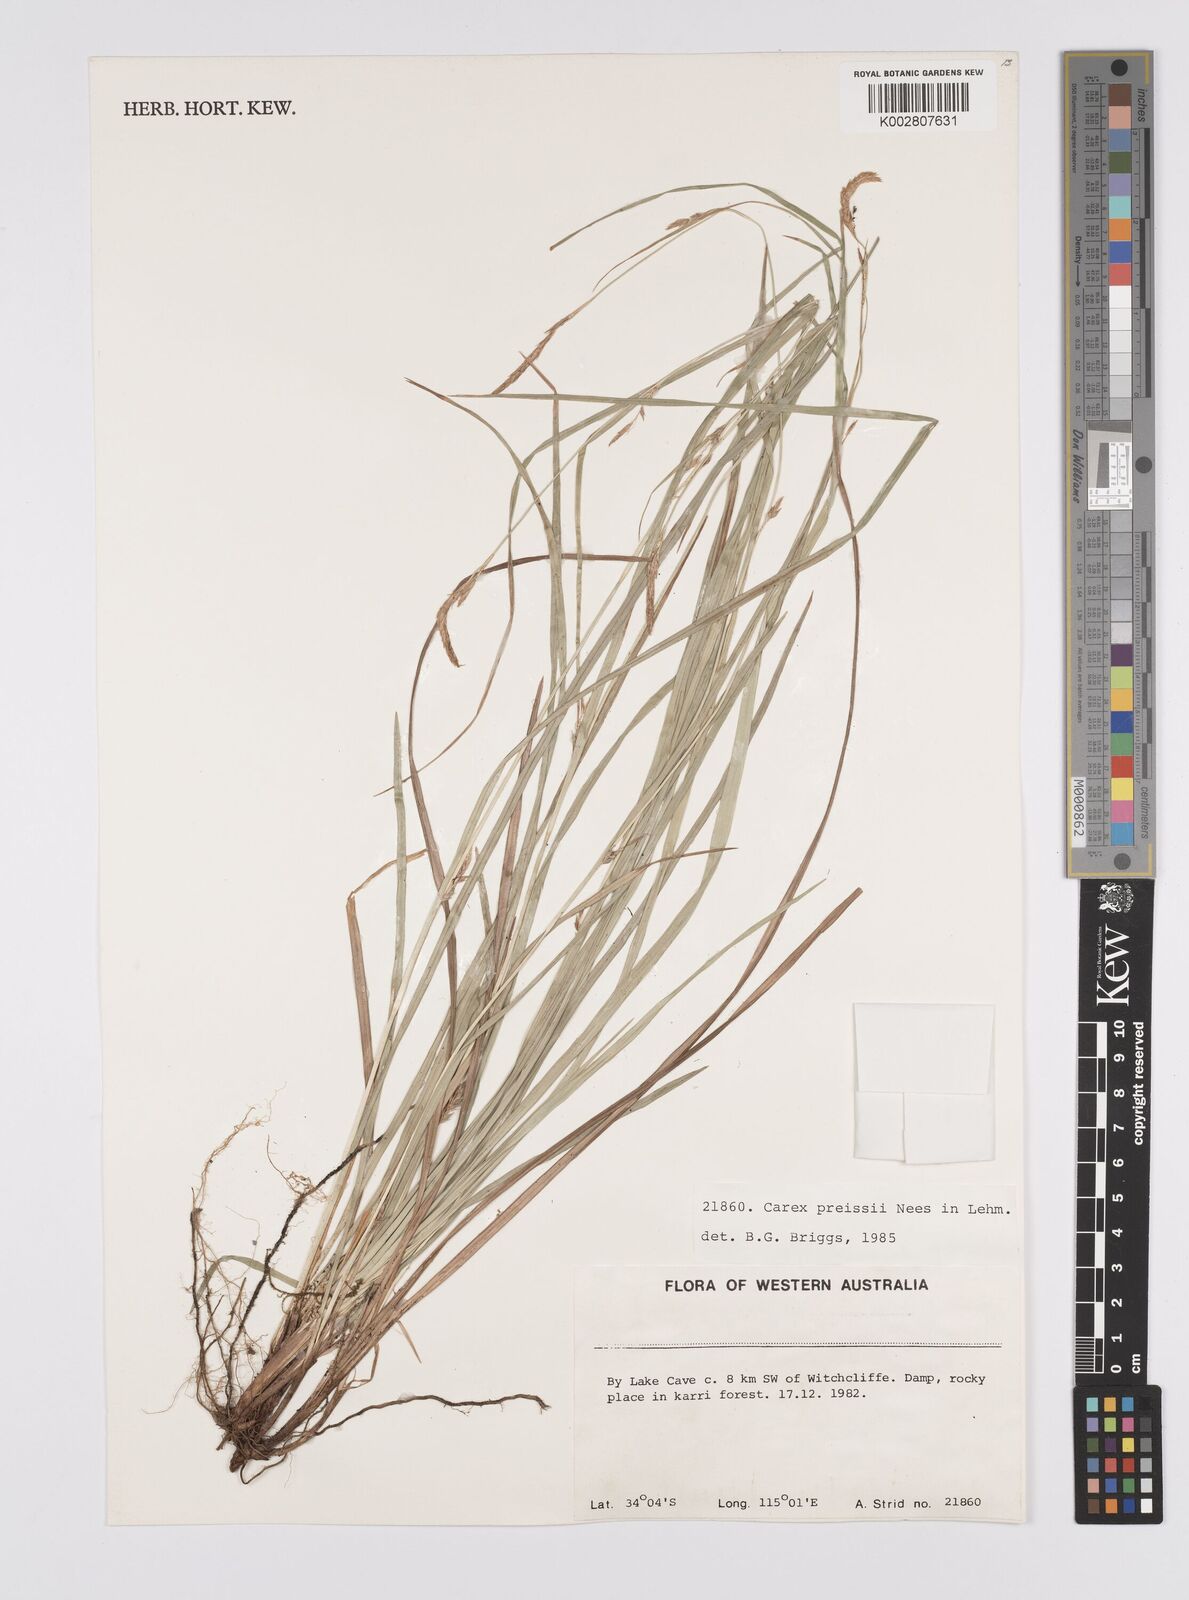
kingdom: Plantae
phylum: Tracheophyta
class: Liliopsida
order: Poales
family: Cyperaceae
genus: Carex
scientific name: Carex preissii
